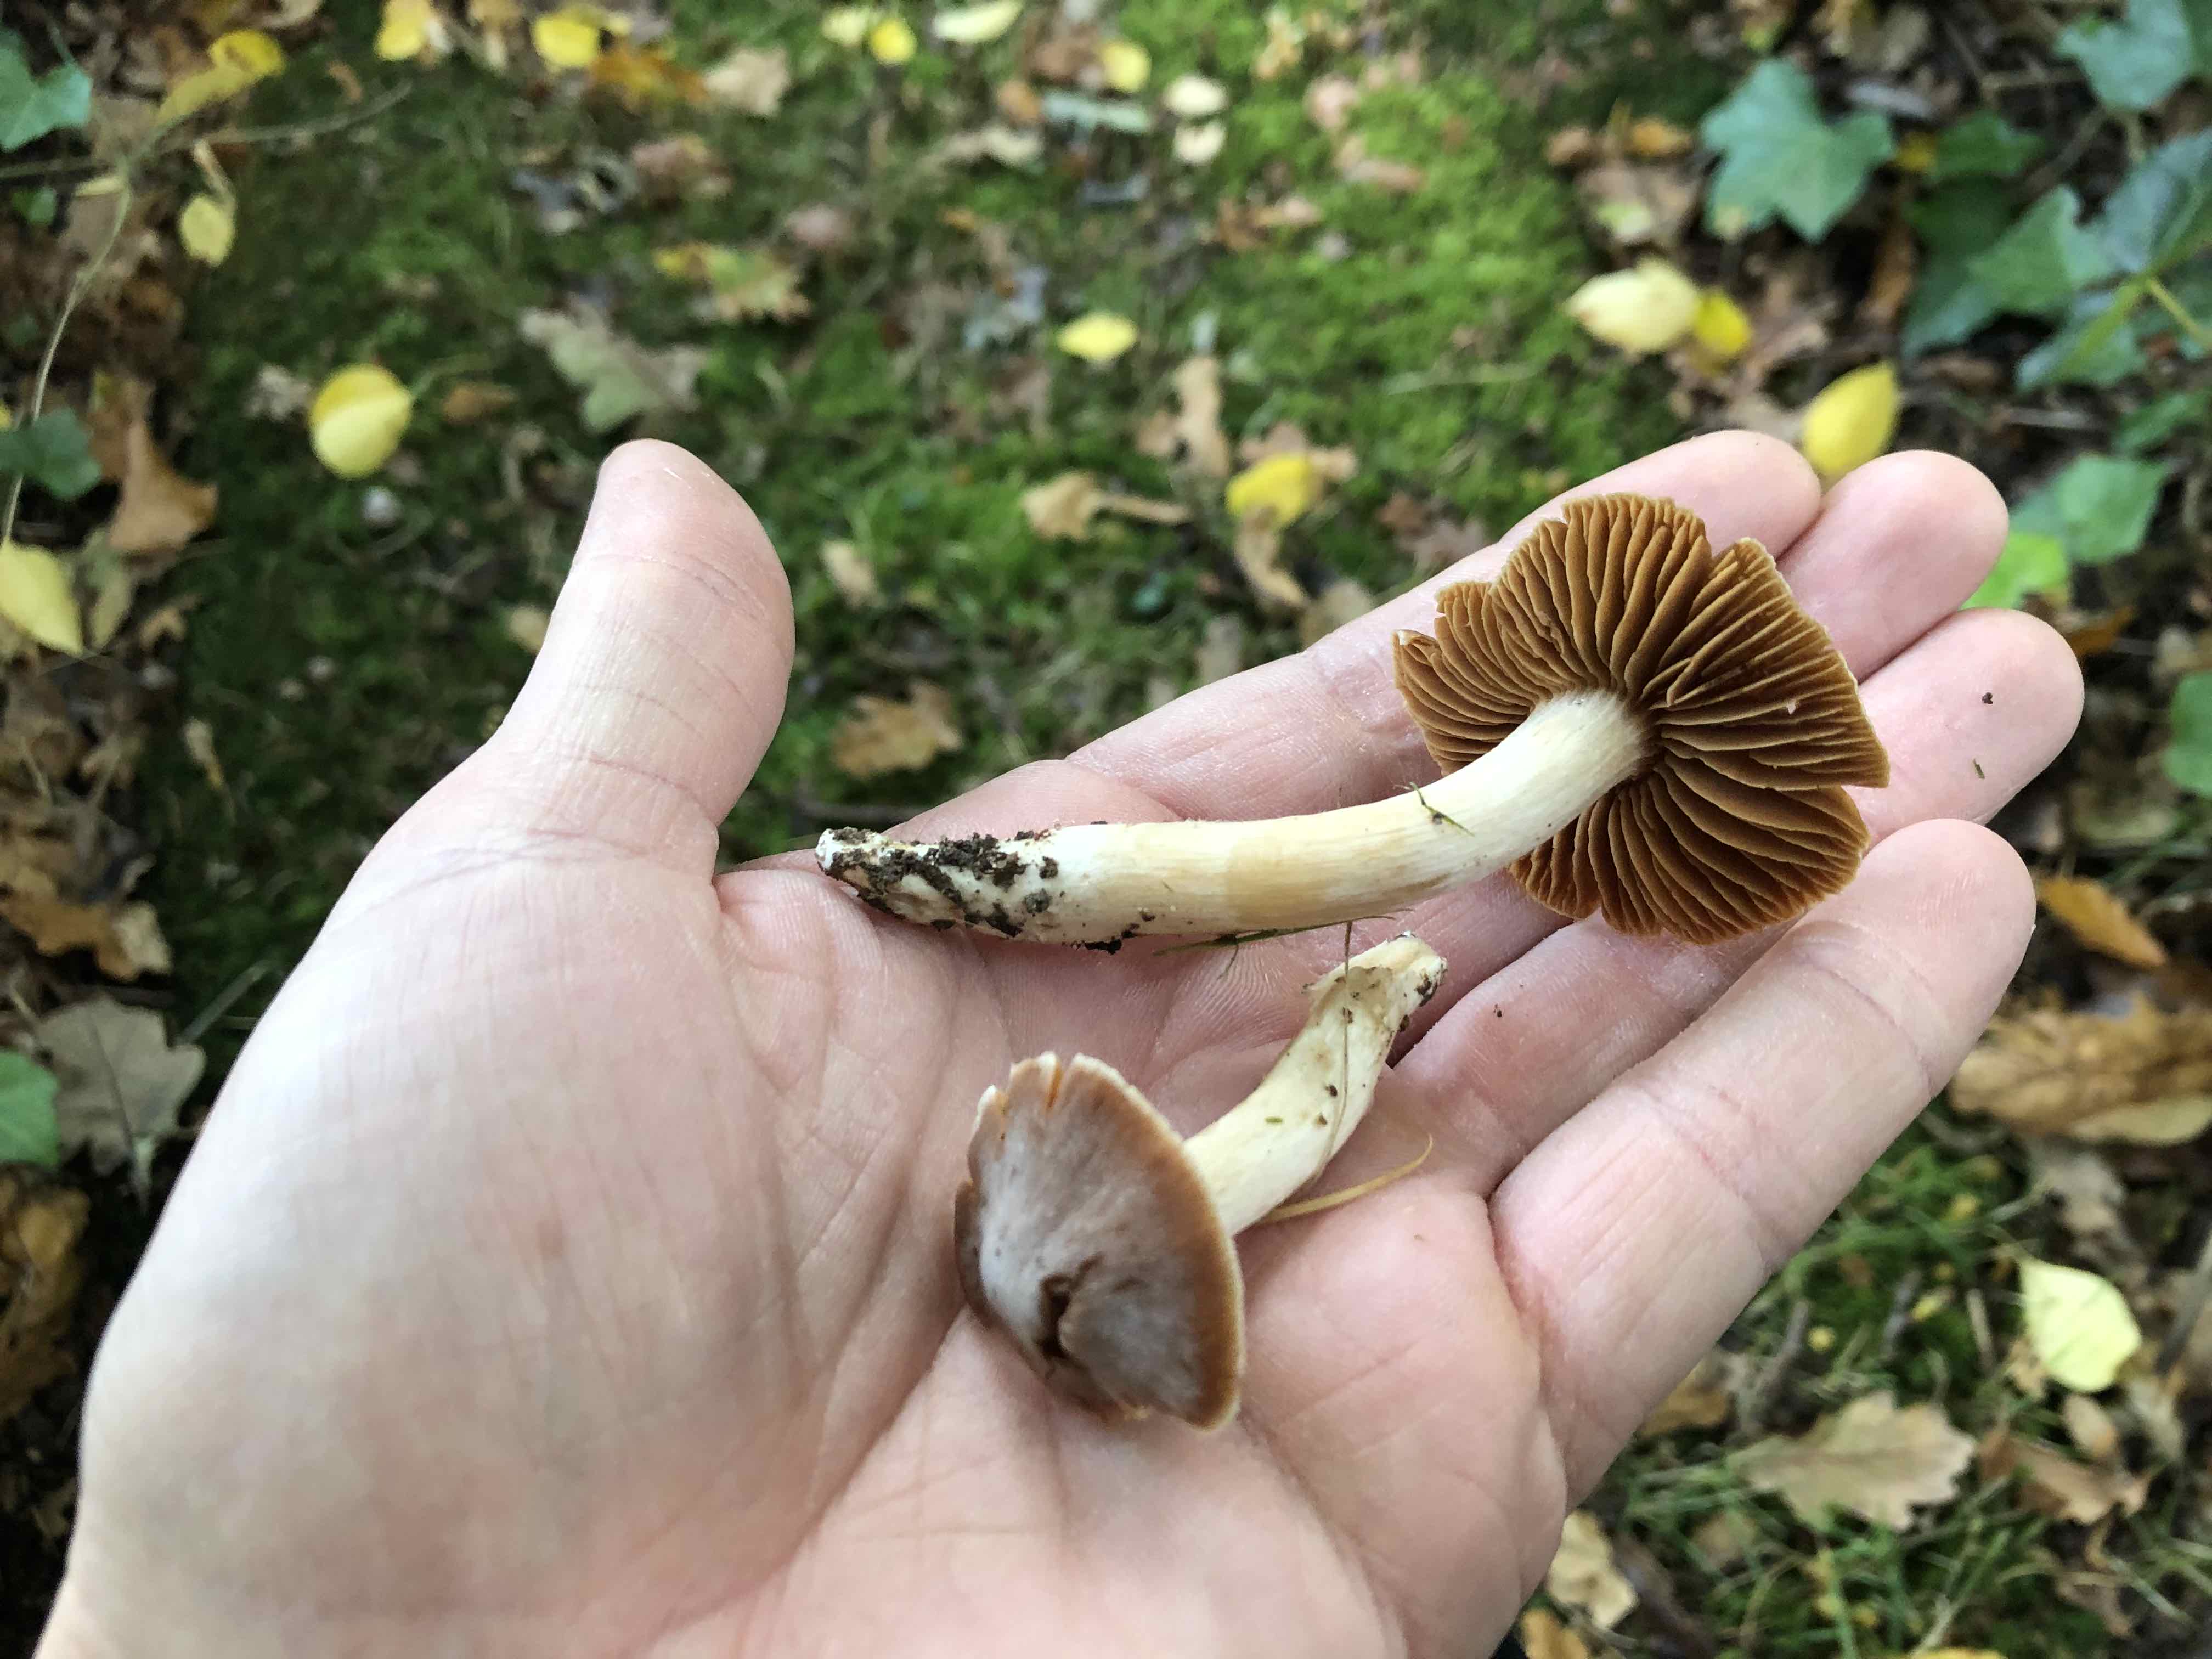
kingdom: Fungi
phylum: Basidiomycota
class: Agaricomycetes
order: Agaricales
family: Cortinariaceae
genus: Cortinarius
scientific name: Cortinarius
